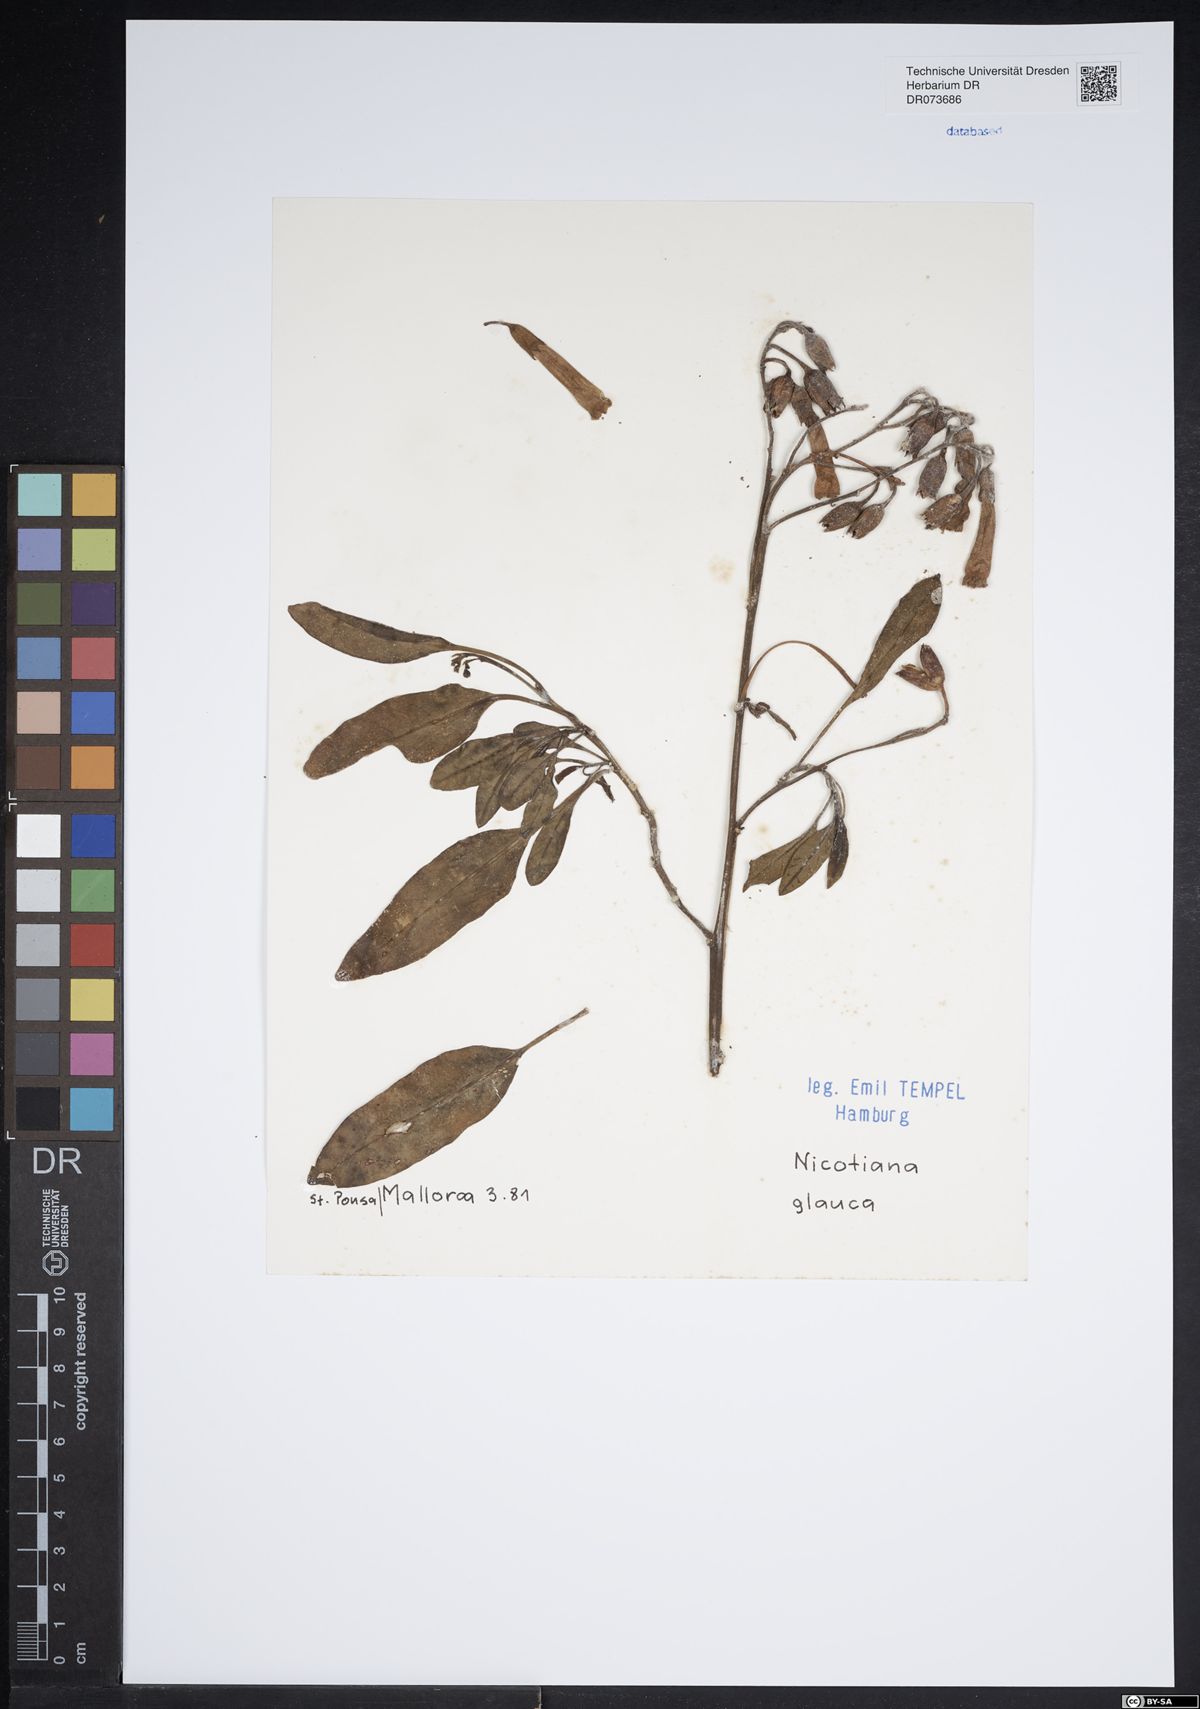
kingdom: Plantae
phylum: Tracheophyta
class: Magnoliopsida
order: Solanales
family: Solanaceae
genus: Nicotiana
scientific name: Nicotiana glauca
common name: Tree tobacco
